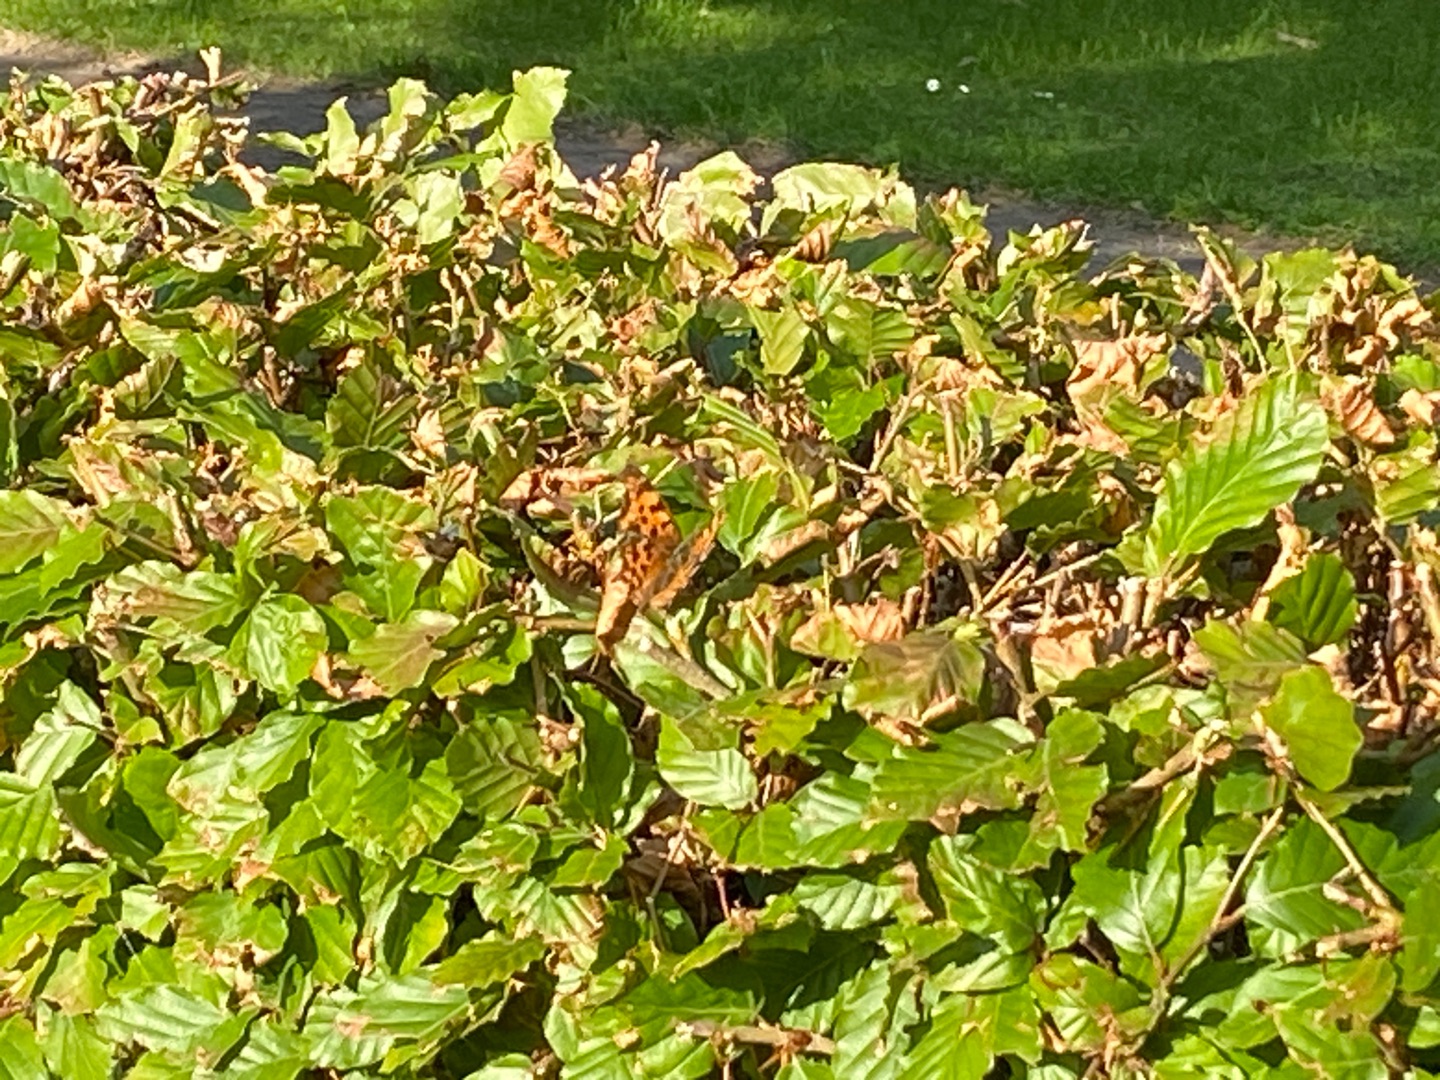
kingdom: Animalia
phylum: Arthropoda
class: Insecta
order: Lepidoptera
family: Nymphalidae
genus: Polygonia
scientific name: Polygonia c-album
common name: Det hvide C
